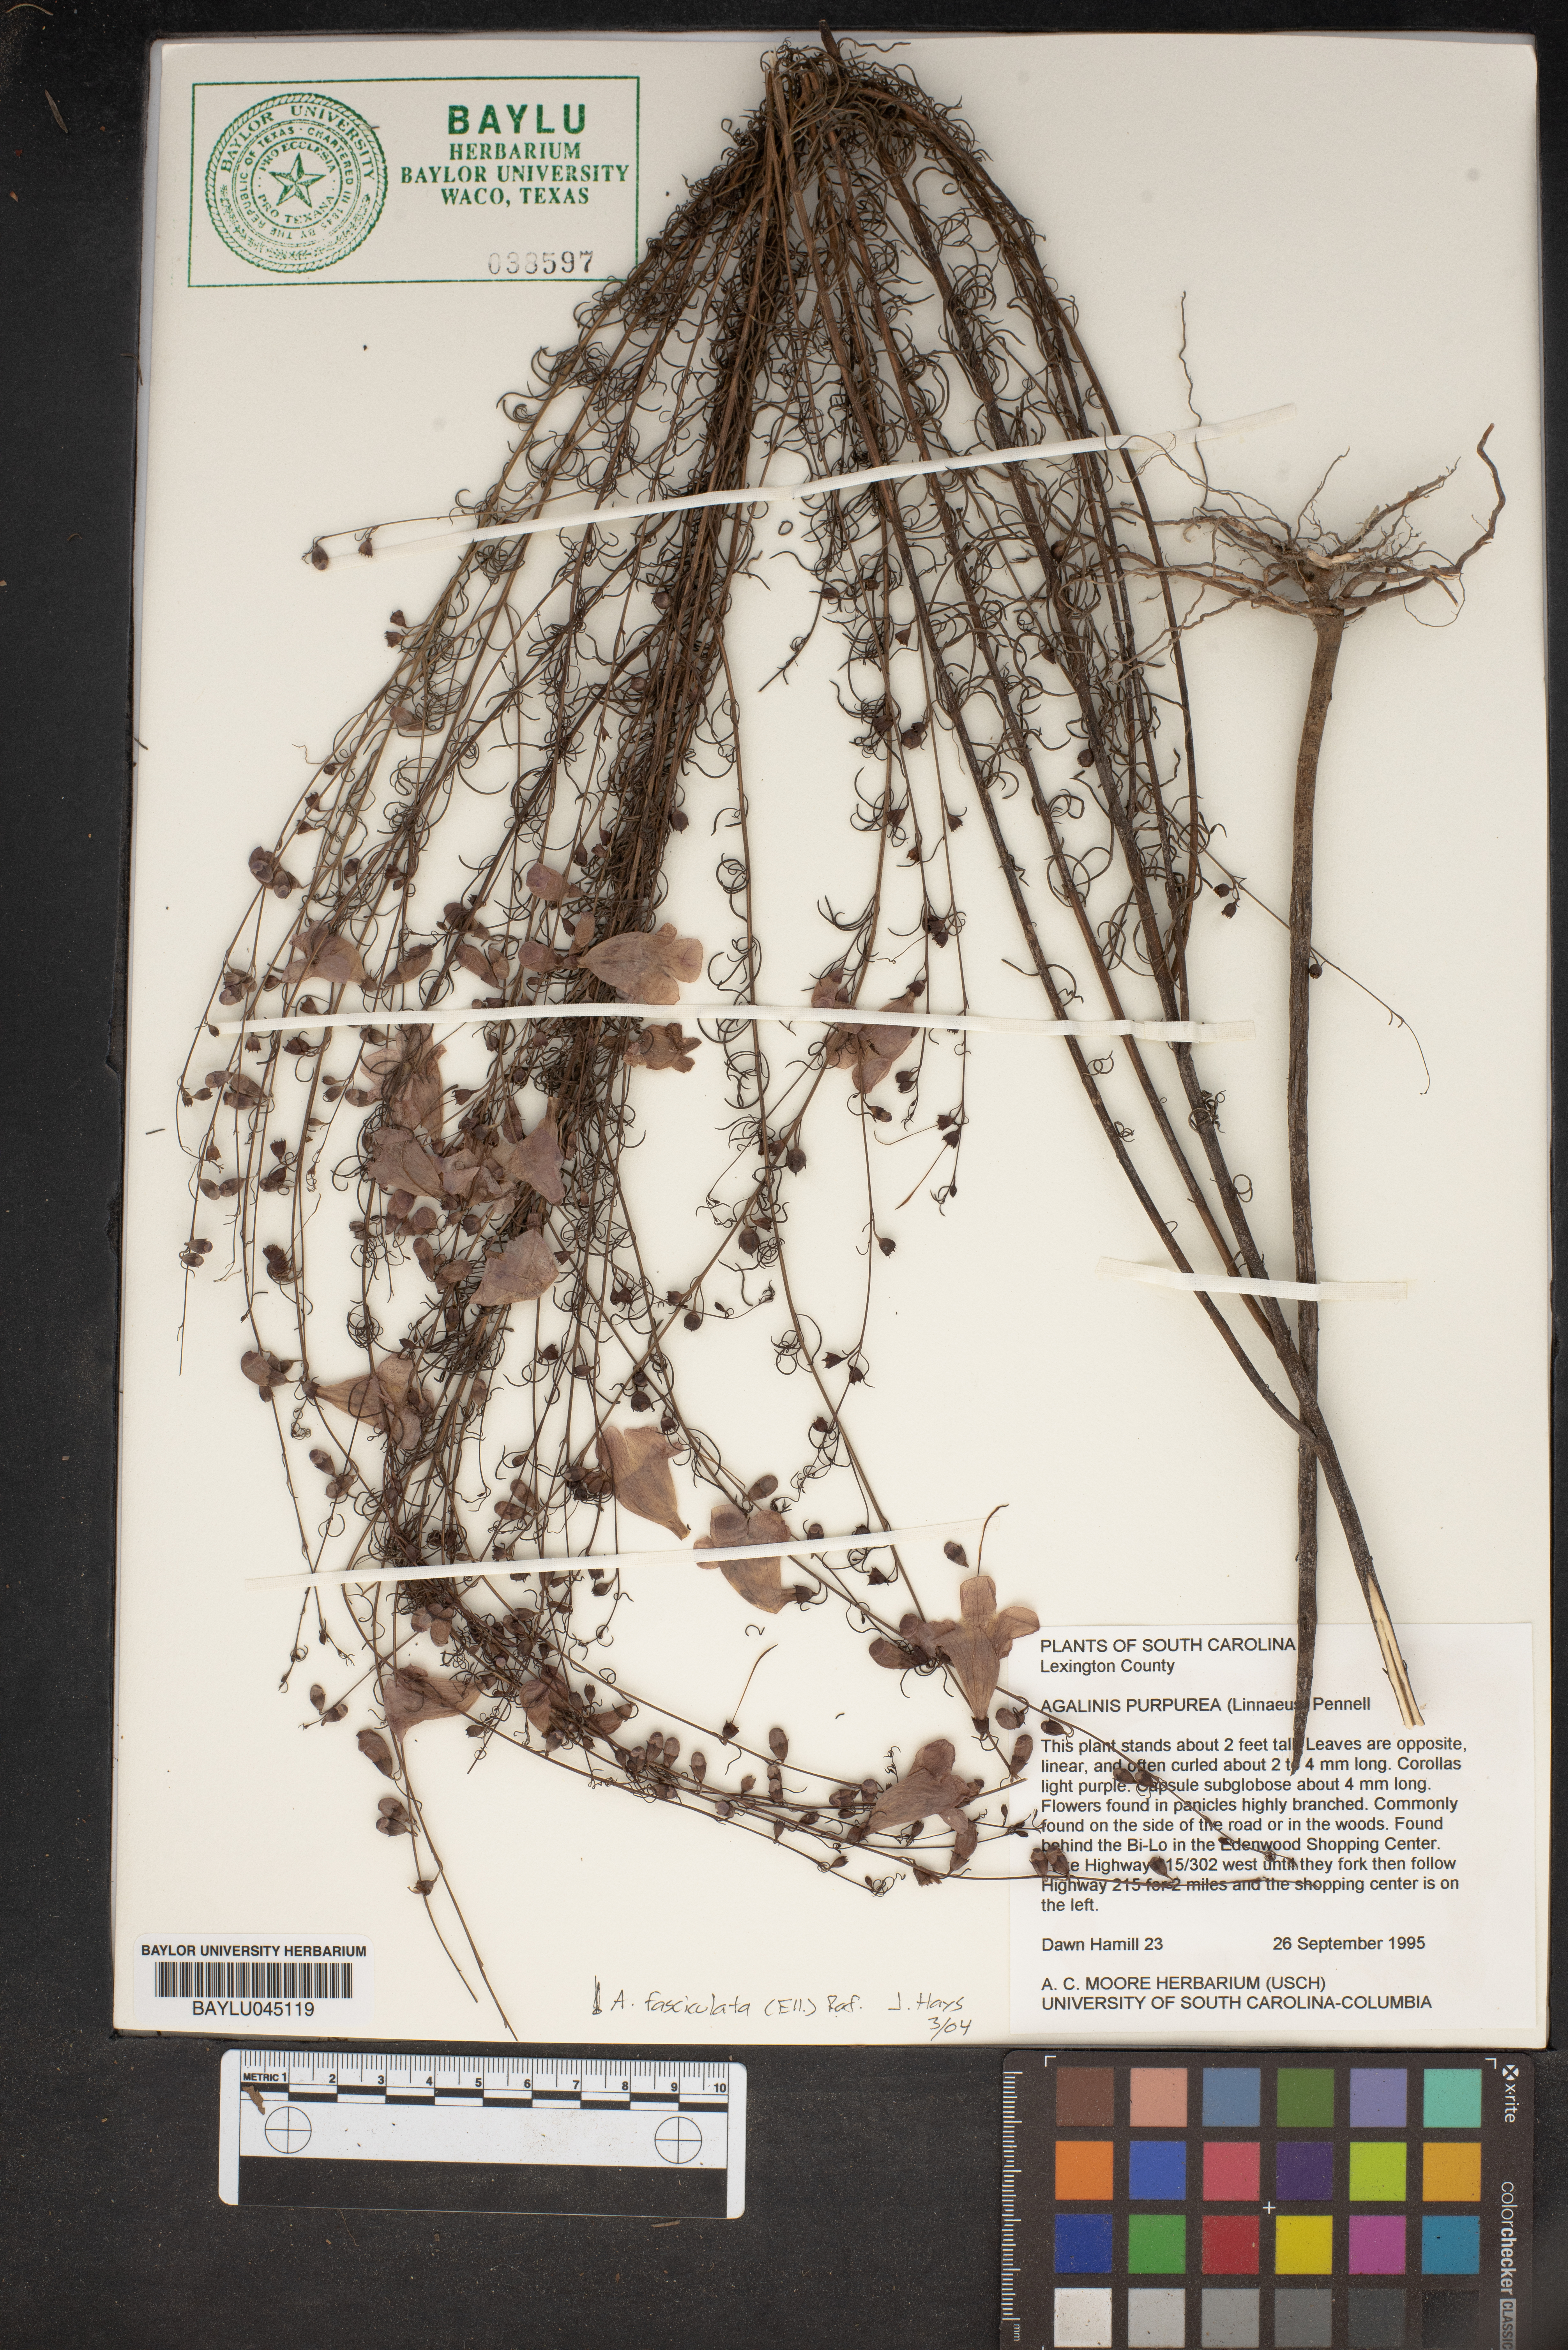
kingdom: Plantae
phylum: Tracheophyta
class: Magnoliopsida
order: Lamiales
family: Orobanchaceae
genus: Agalinis
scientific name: Agalinis purpurea
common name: Purple false foxglove
